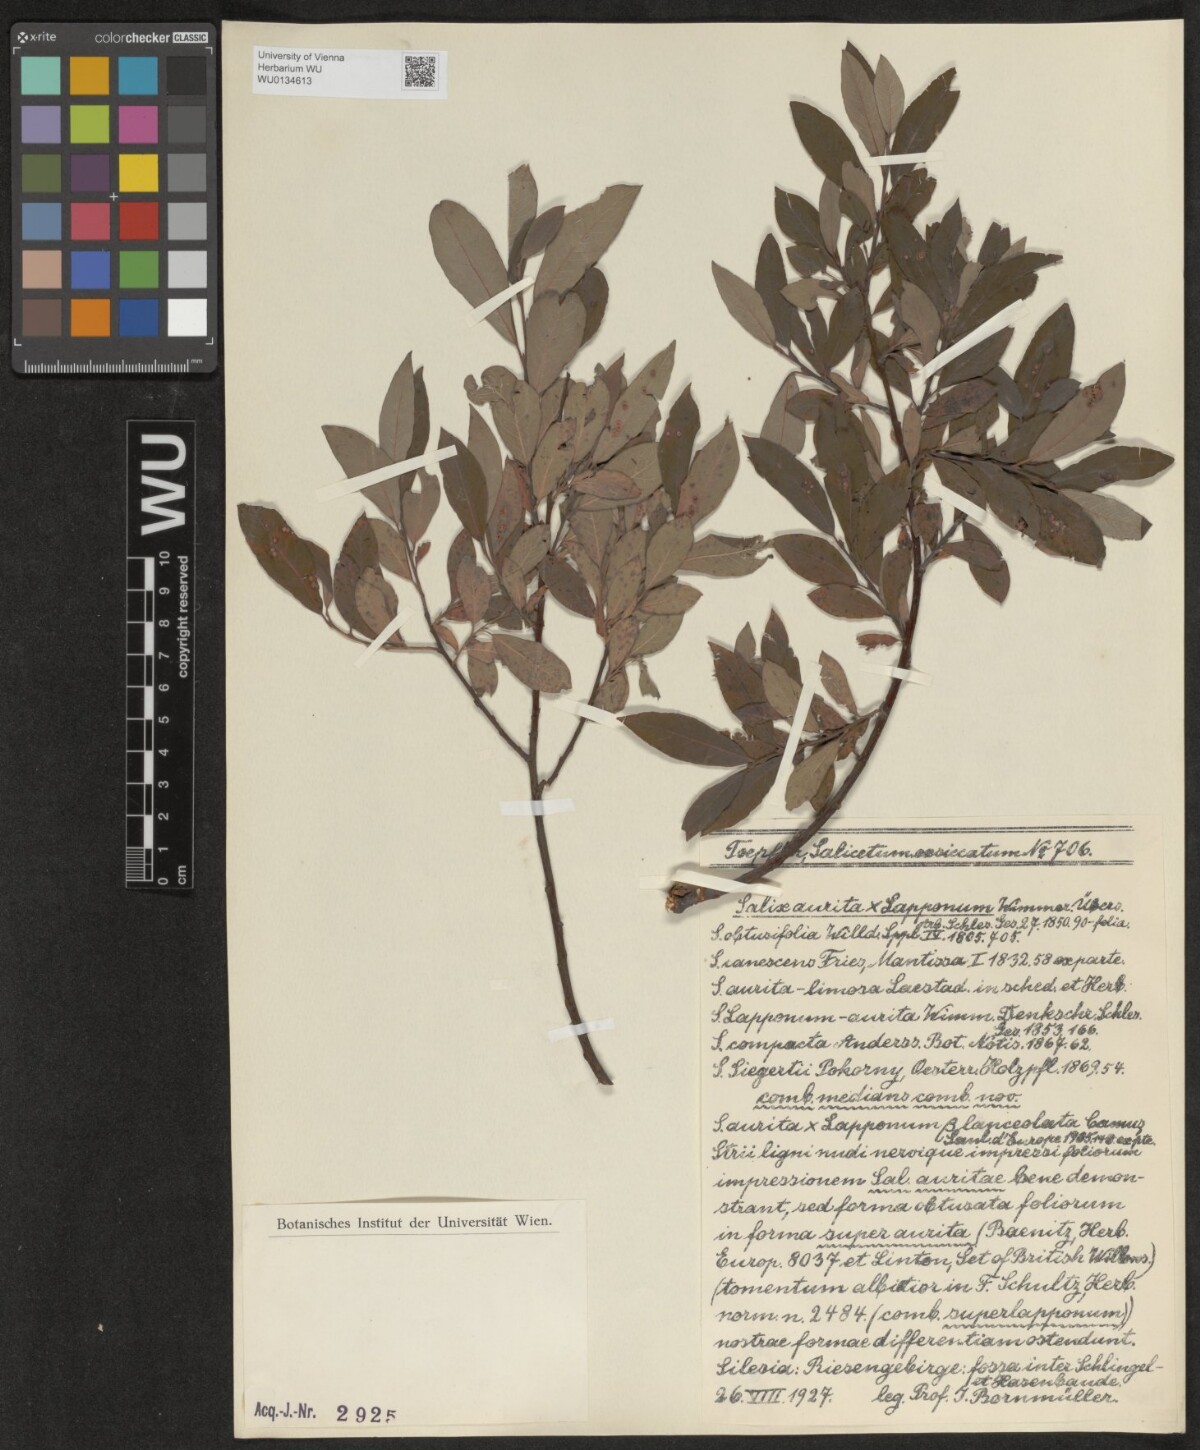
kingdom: Plantae
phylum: Tracheophyta
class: Magnoliopsida
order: Malpighiales
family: Salicaceae
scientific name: Salicaceae
